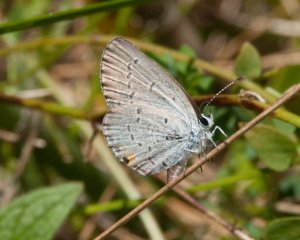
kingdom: Animalia
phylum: Arthropoda
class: Insecta
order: Lepidoptera
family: Lycaenidae
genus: Elkalyce
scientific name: Elkalyce comyntas
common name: Eastern Tailed-Blue
